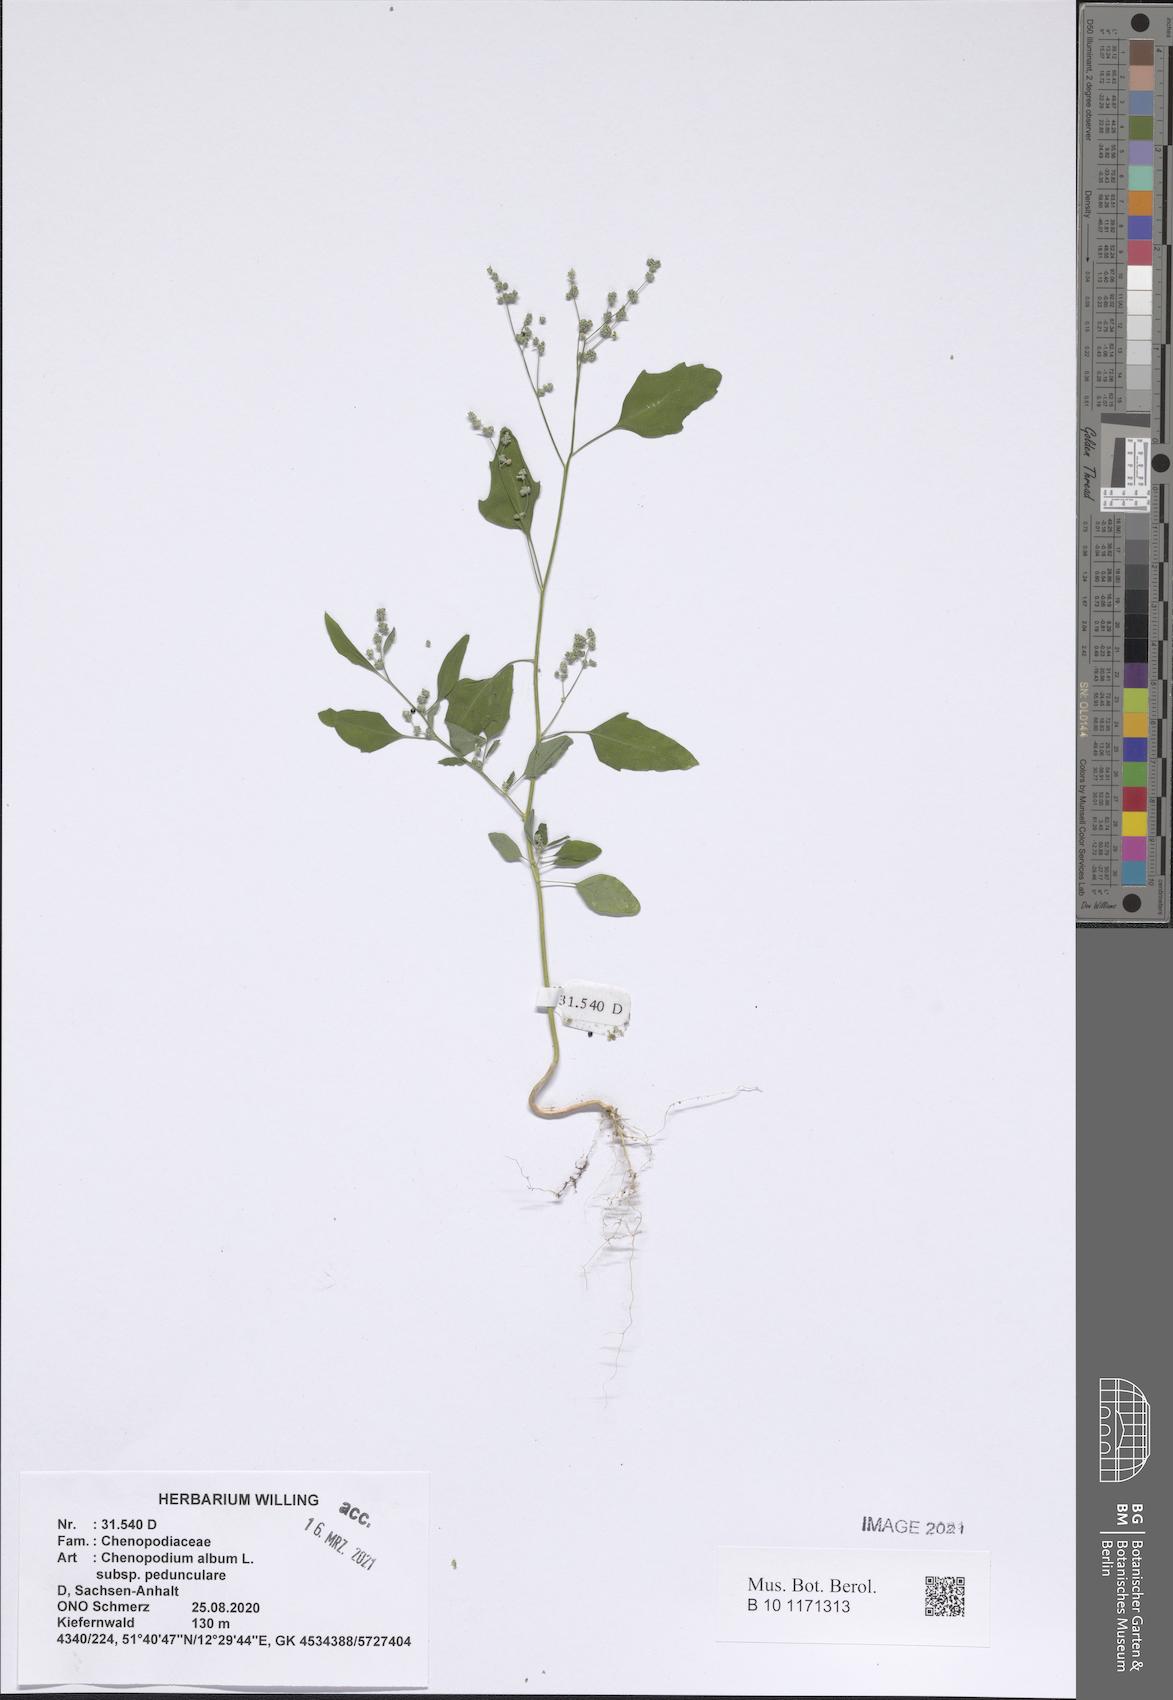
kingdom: Plantae
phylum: Tracheophyta
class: Magnoliopsida
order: Caryophyllales
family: Amaranthaceae
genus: Chenopodium
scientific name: Chenopodium album
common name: Fat-hen
